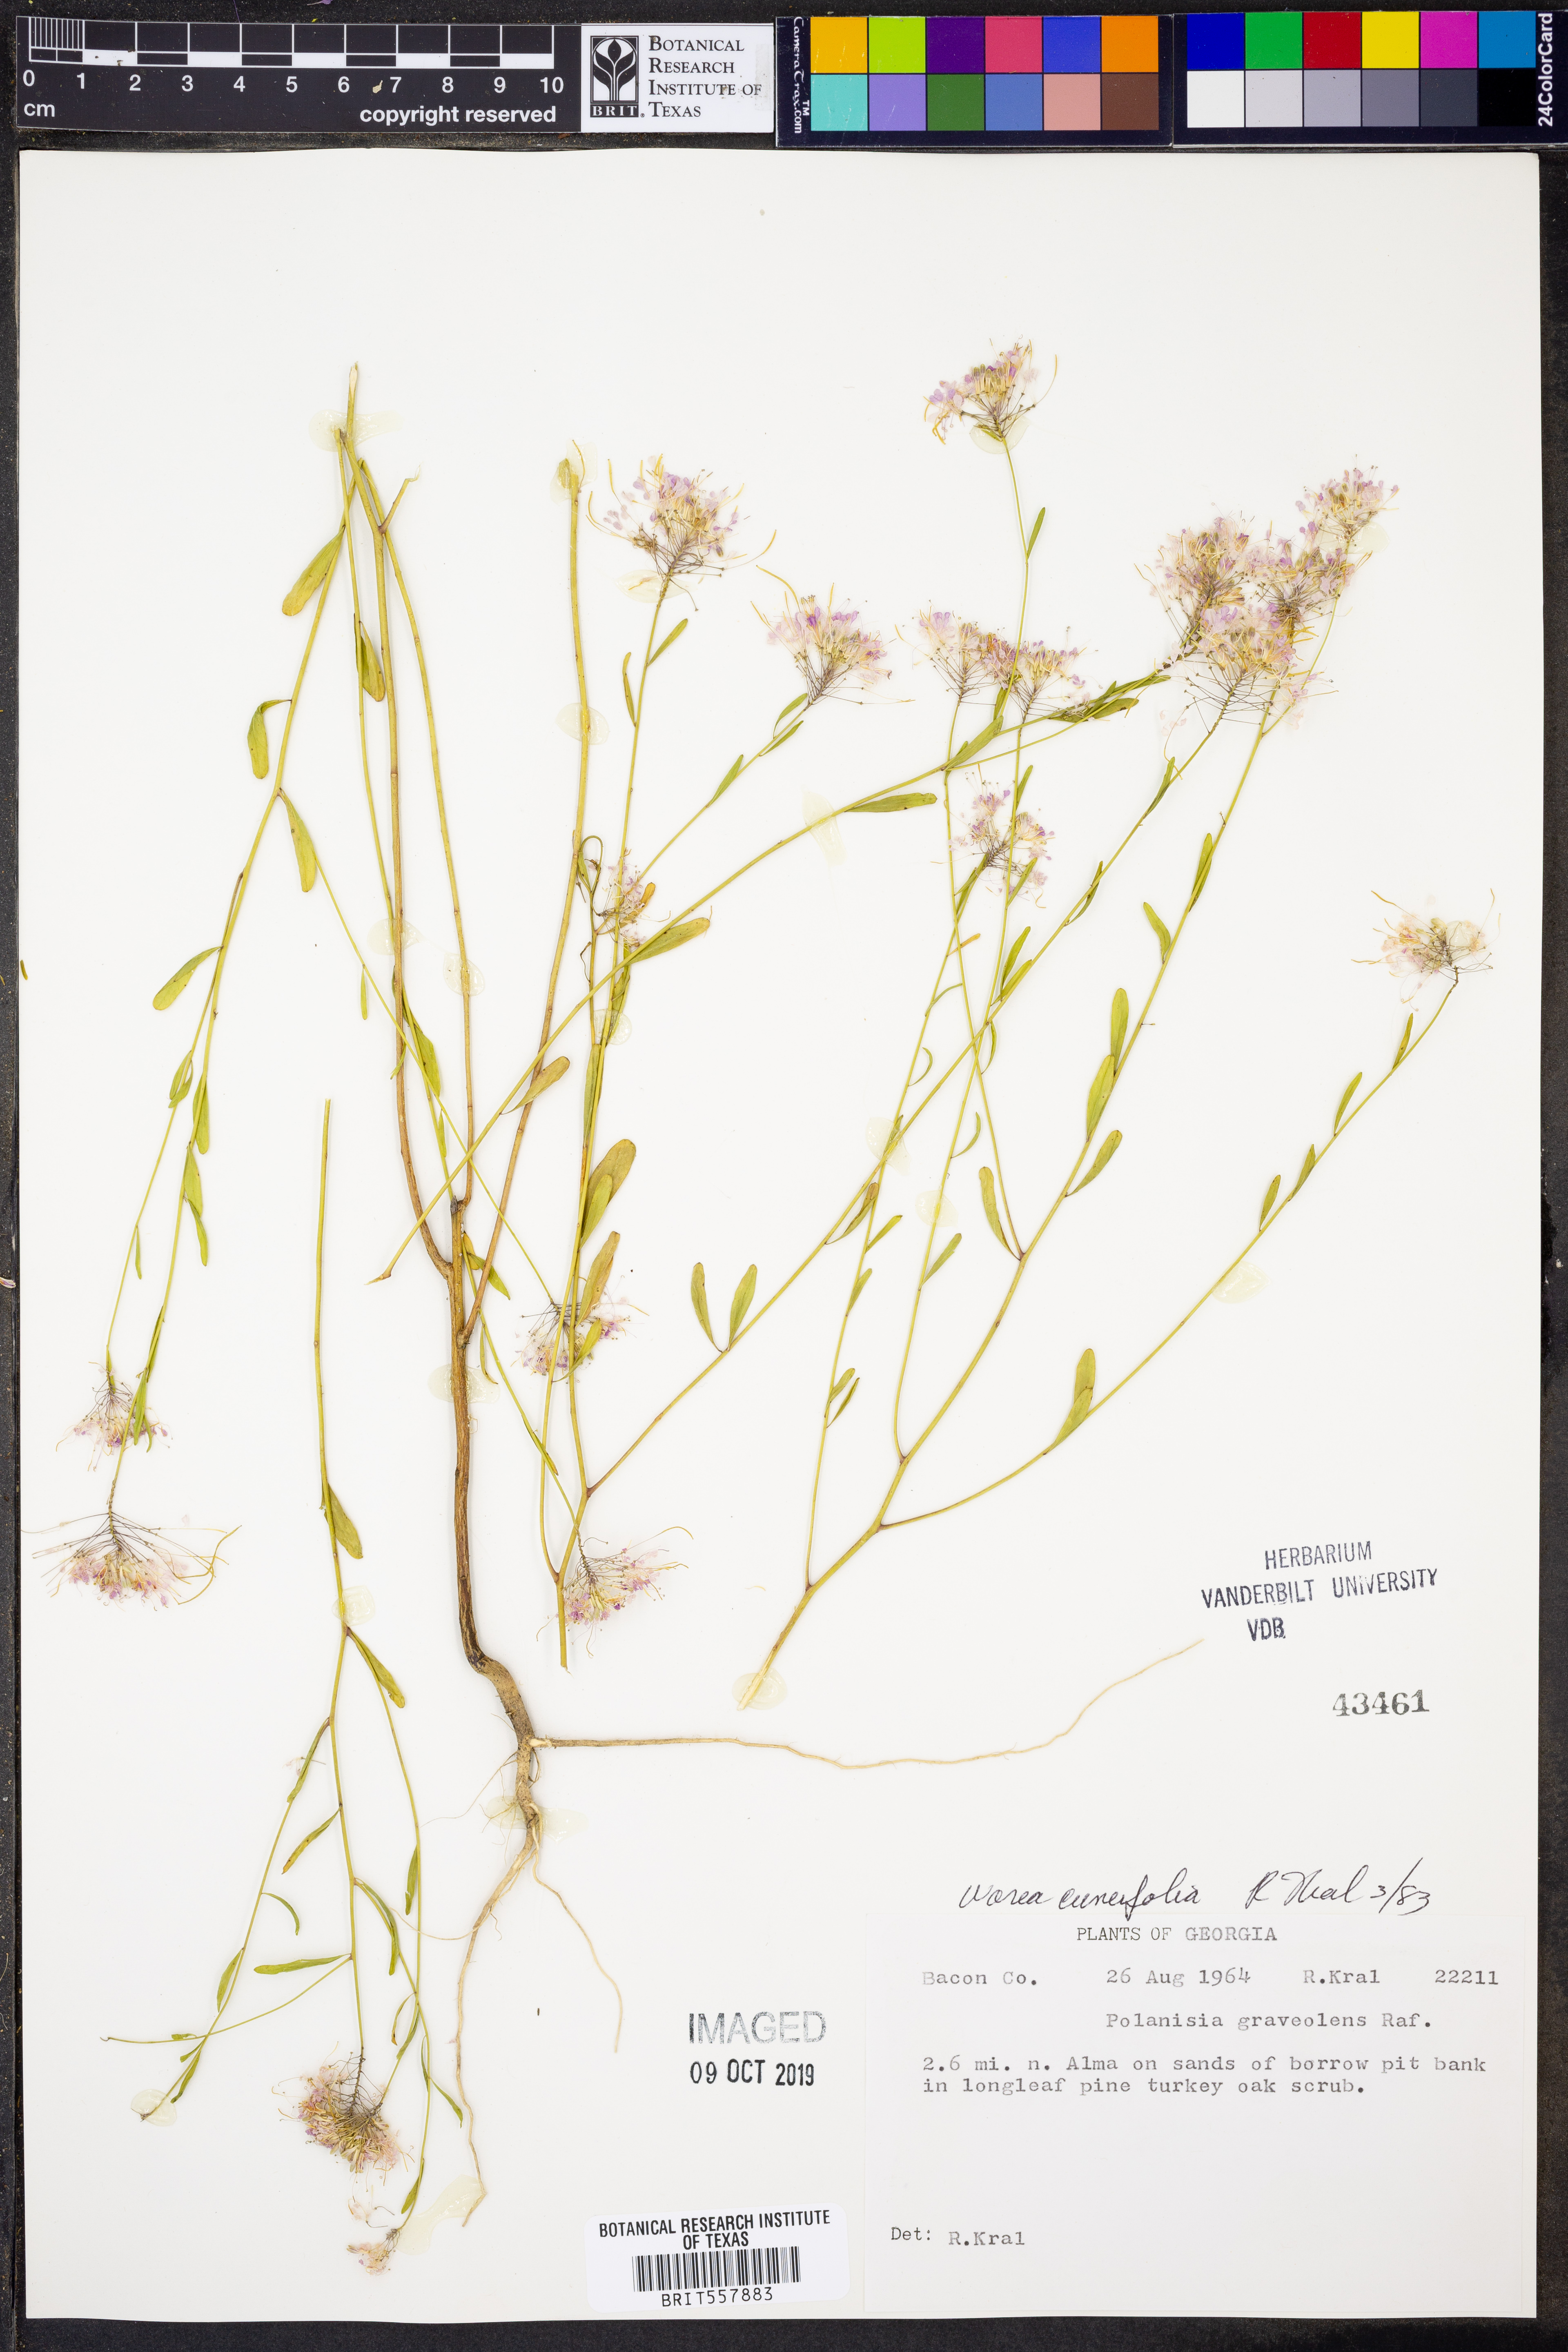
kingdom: Plantae
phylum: Tracheophyta
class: Magnoliopsida
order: Brassicales
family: Cleomaceae
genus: Polanisia
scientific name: Polanisia dodecandra
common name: Clammyweed
